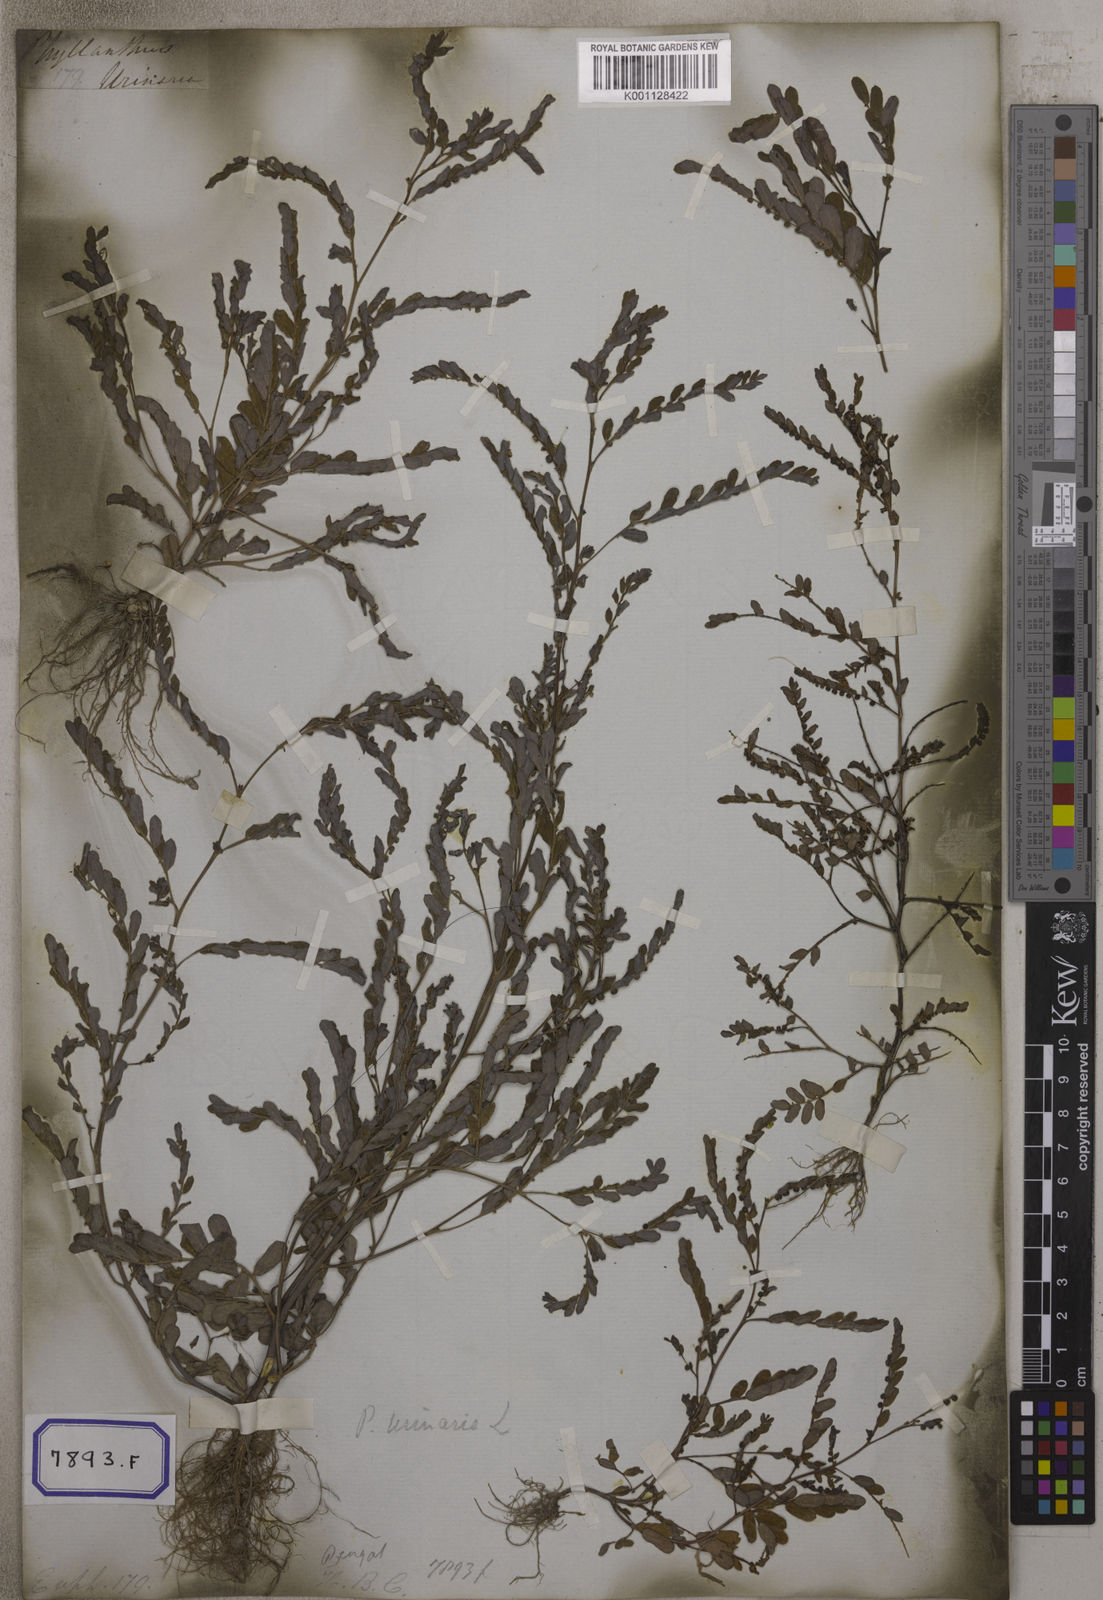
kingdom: Plantae
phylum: Tracheophyta
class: Magnoliopsida
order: Malpighiales
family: Euphorbiaceae
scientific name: Euphorbiaceae
